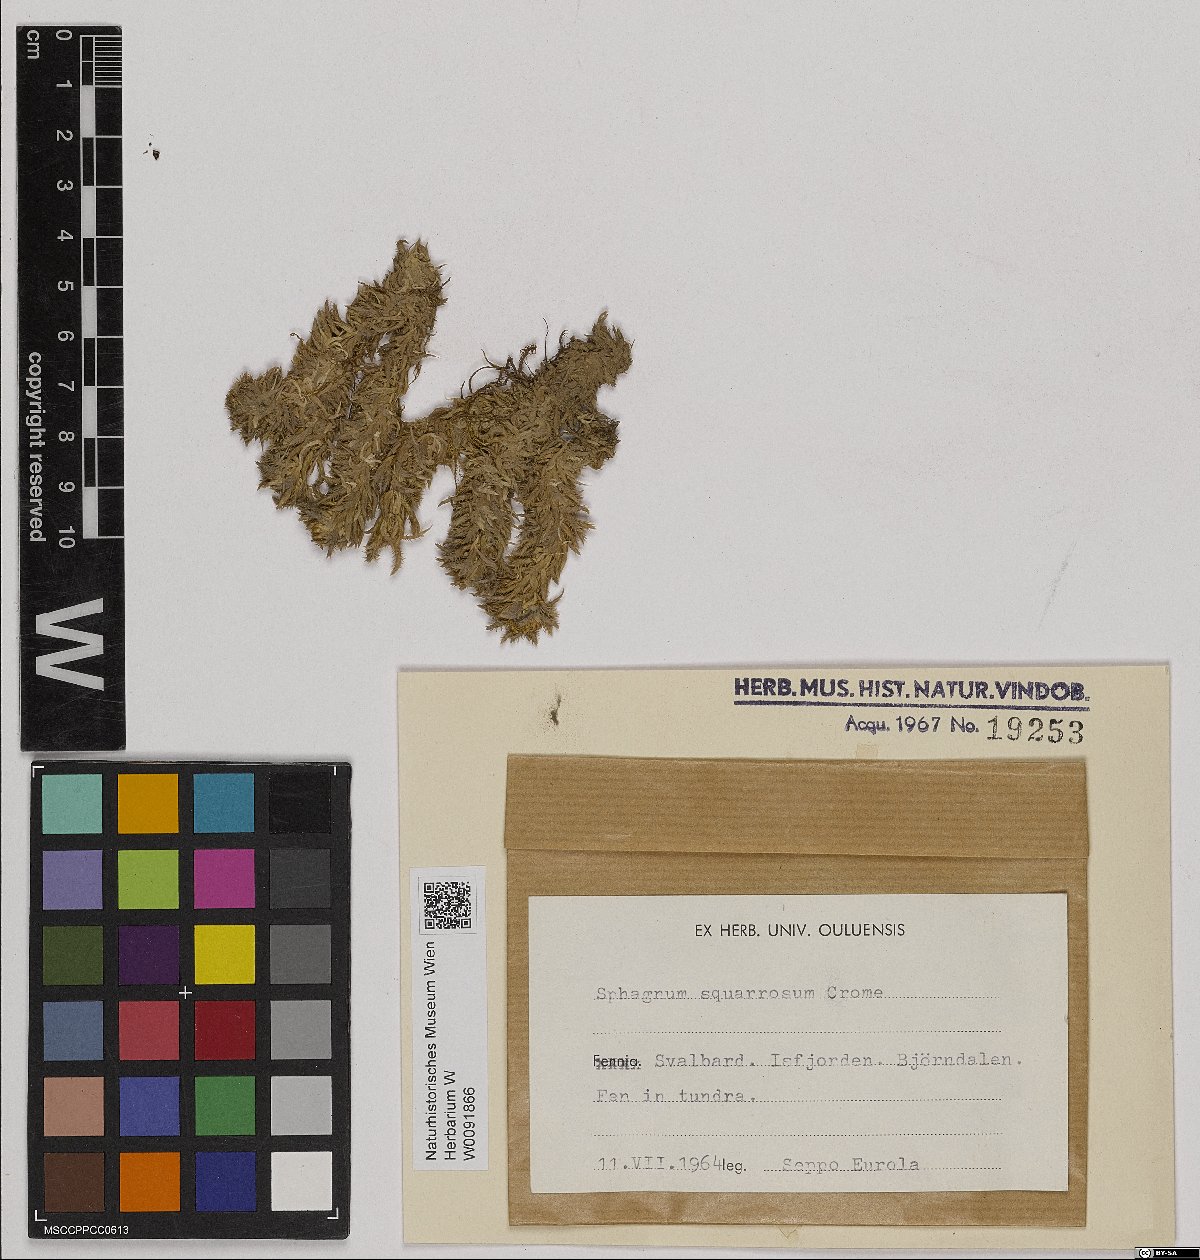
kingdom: Plantae
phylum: Bryophyta
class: Sphagnopsida
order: Sphagnales
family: Sphagnaceae
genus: Sphagnum
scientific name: Sphagnum squarrosum
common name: Shaggy peat moss
